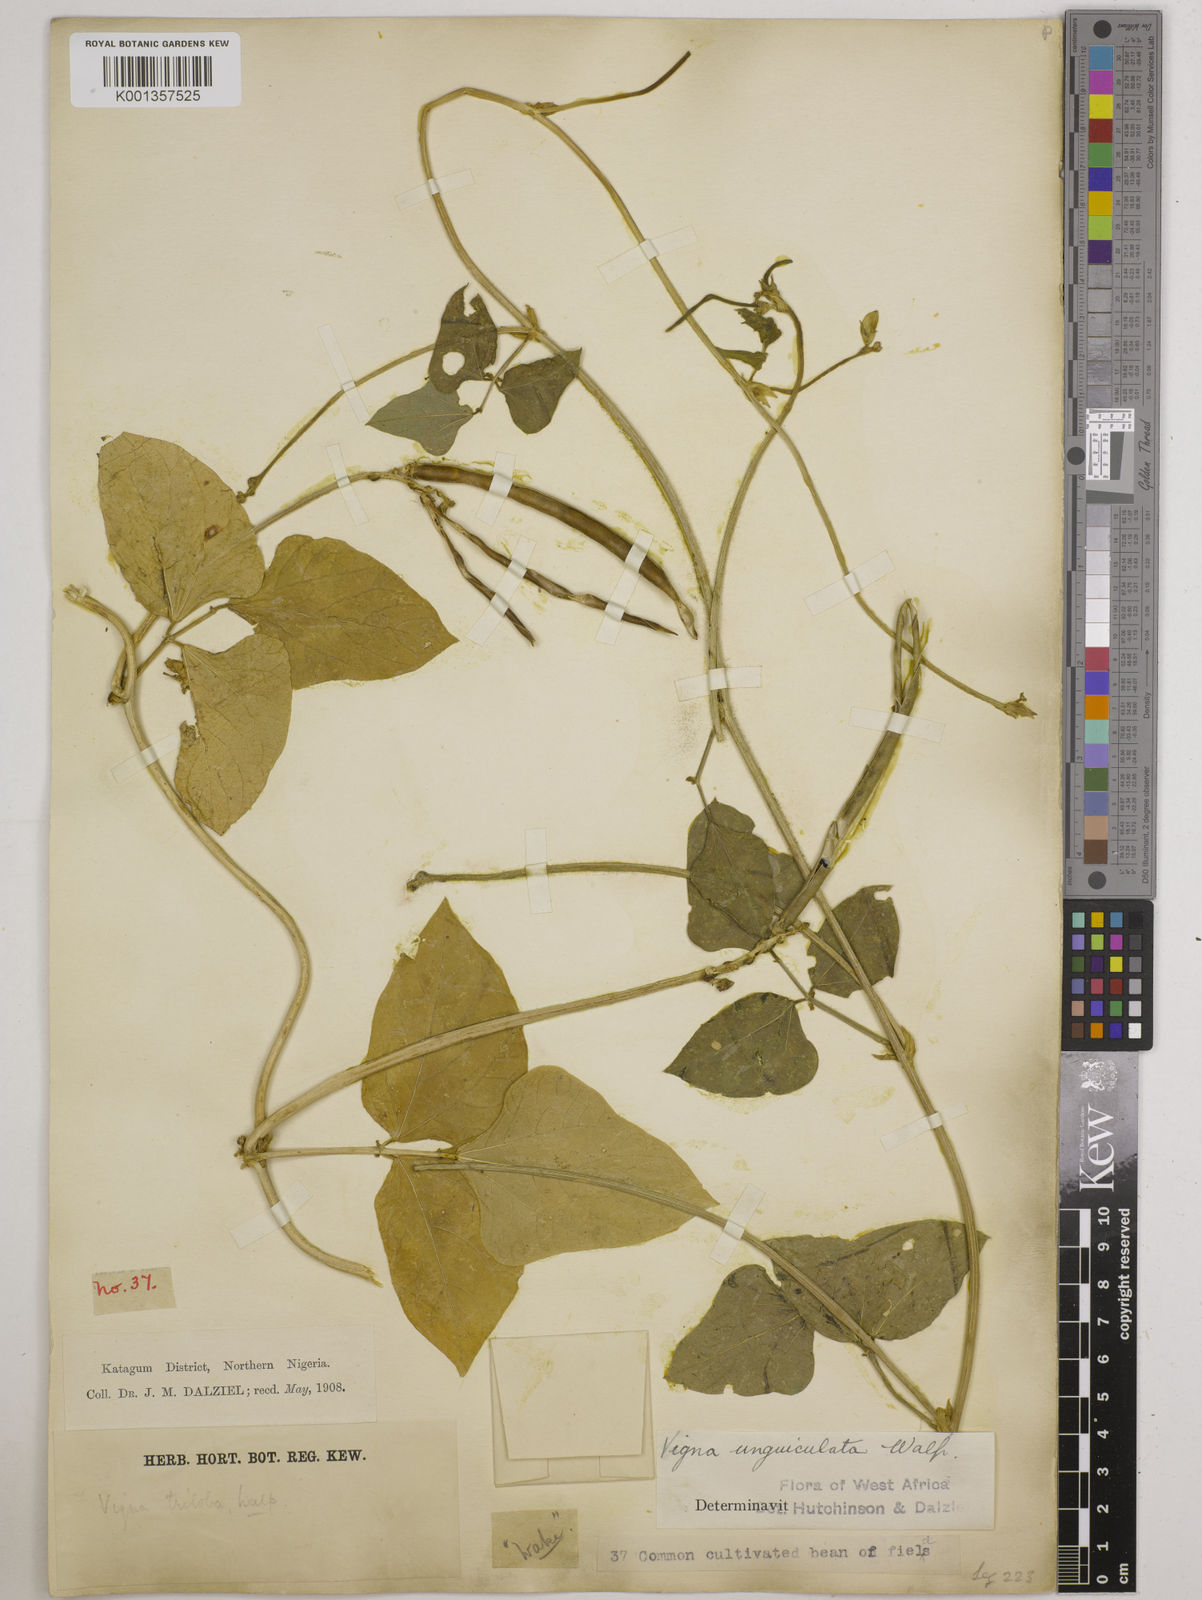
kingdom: Plantae
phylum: Tracheophyta
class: Magnoliopsida
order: Fabales
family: Fabaceae
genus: Vigna
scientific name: Vigna
